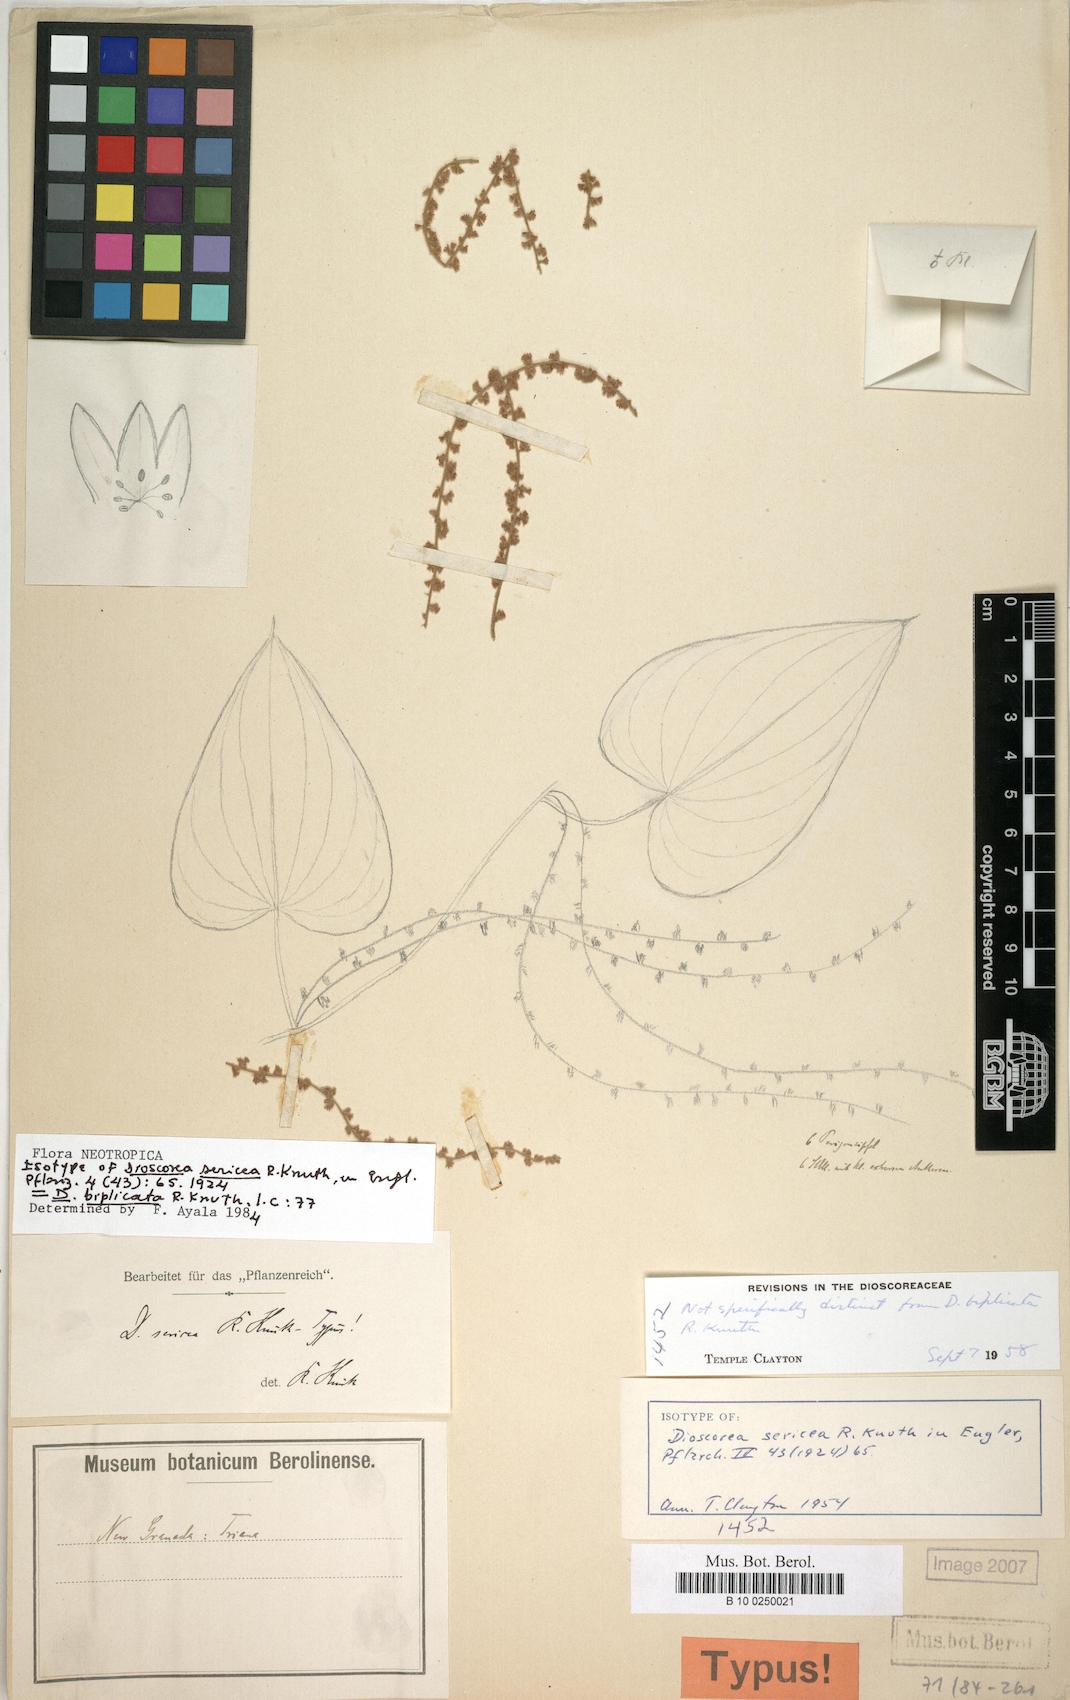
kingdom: Plantae
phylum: Tracheophyta
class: Liliopsida
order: Dioscoreales
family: Dioscoreaceae
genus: Dioscorea
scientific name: Dioscorea biplicata
